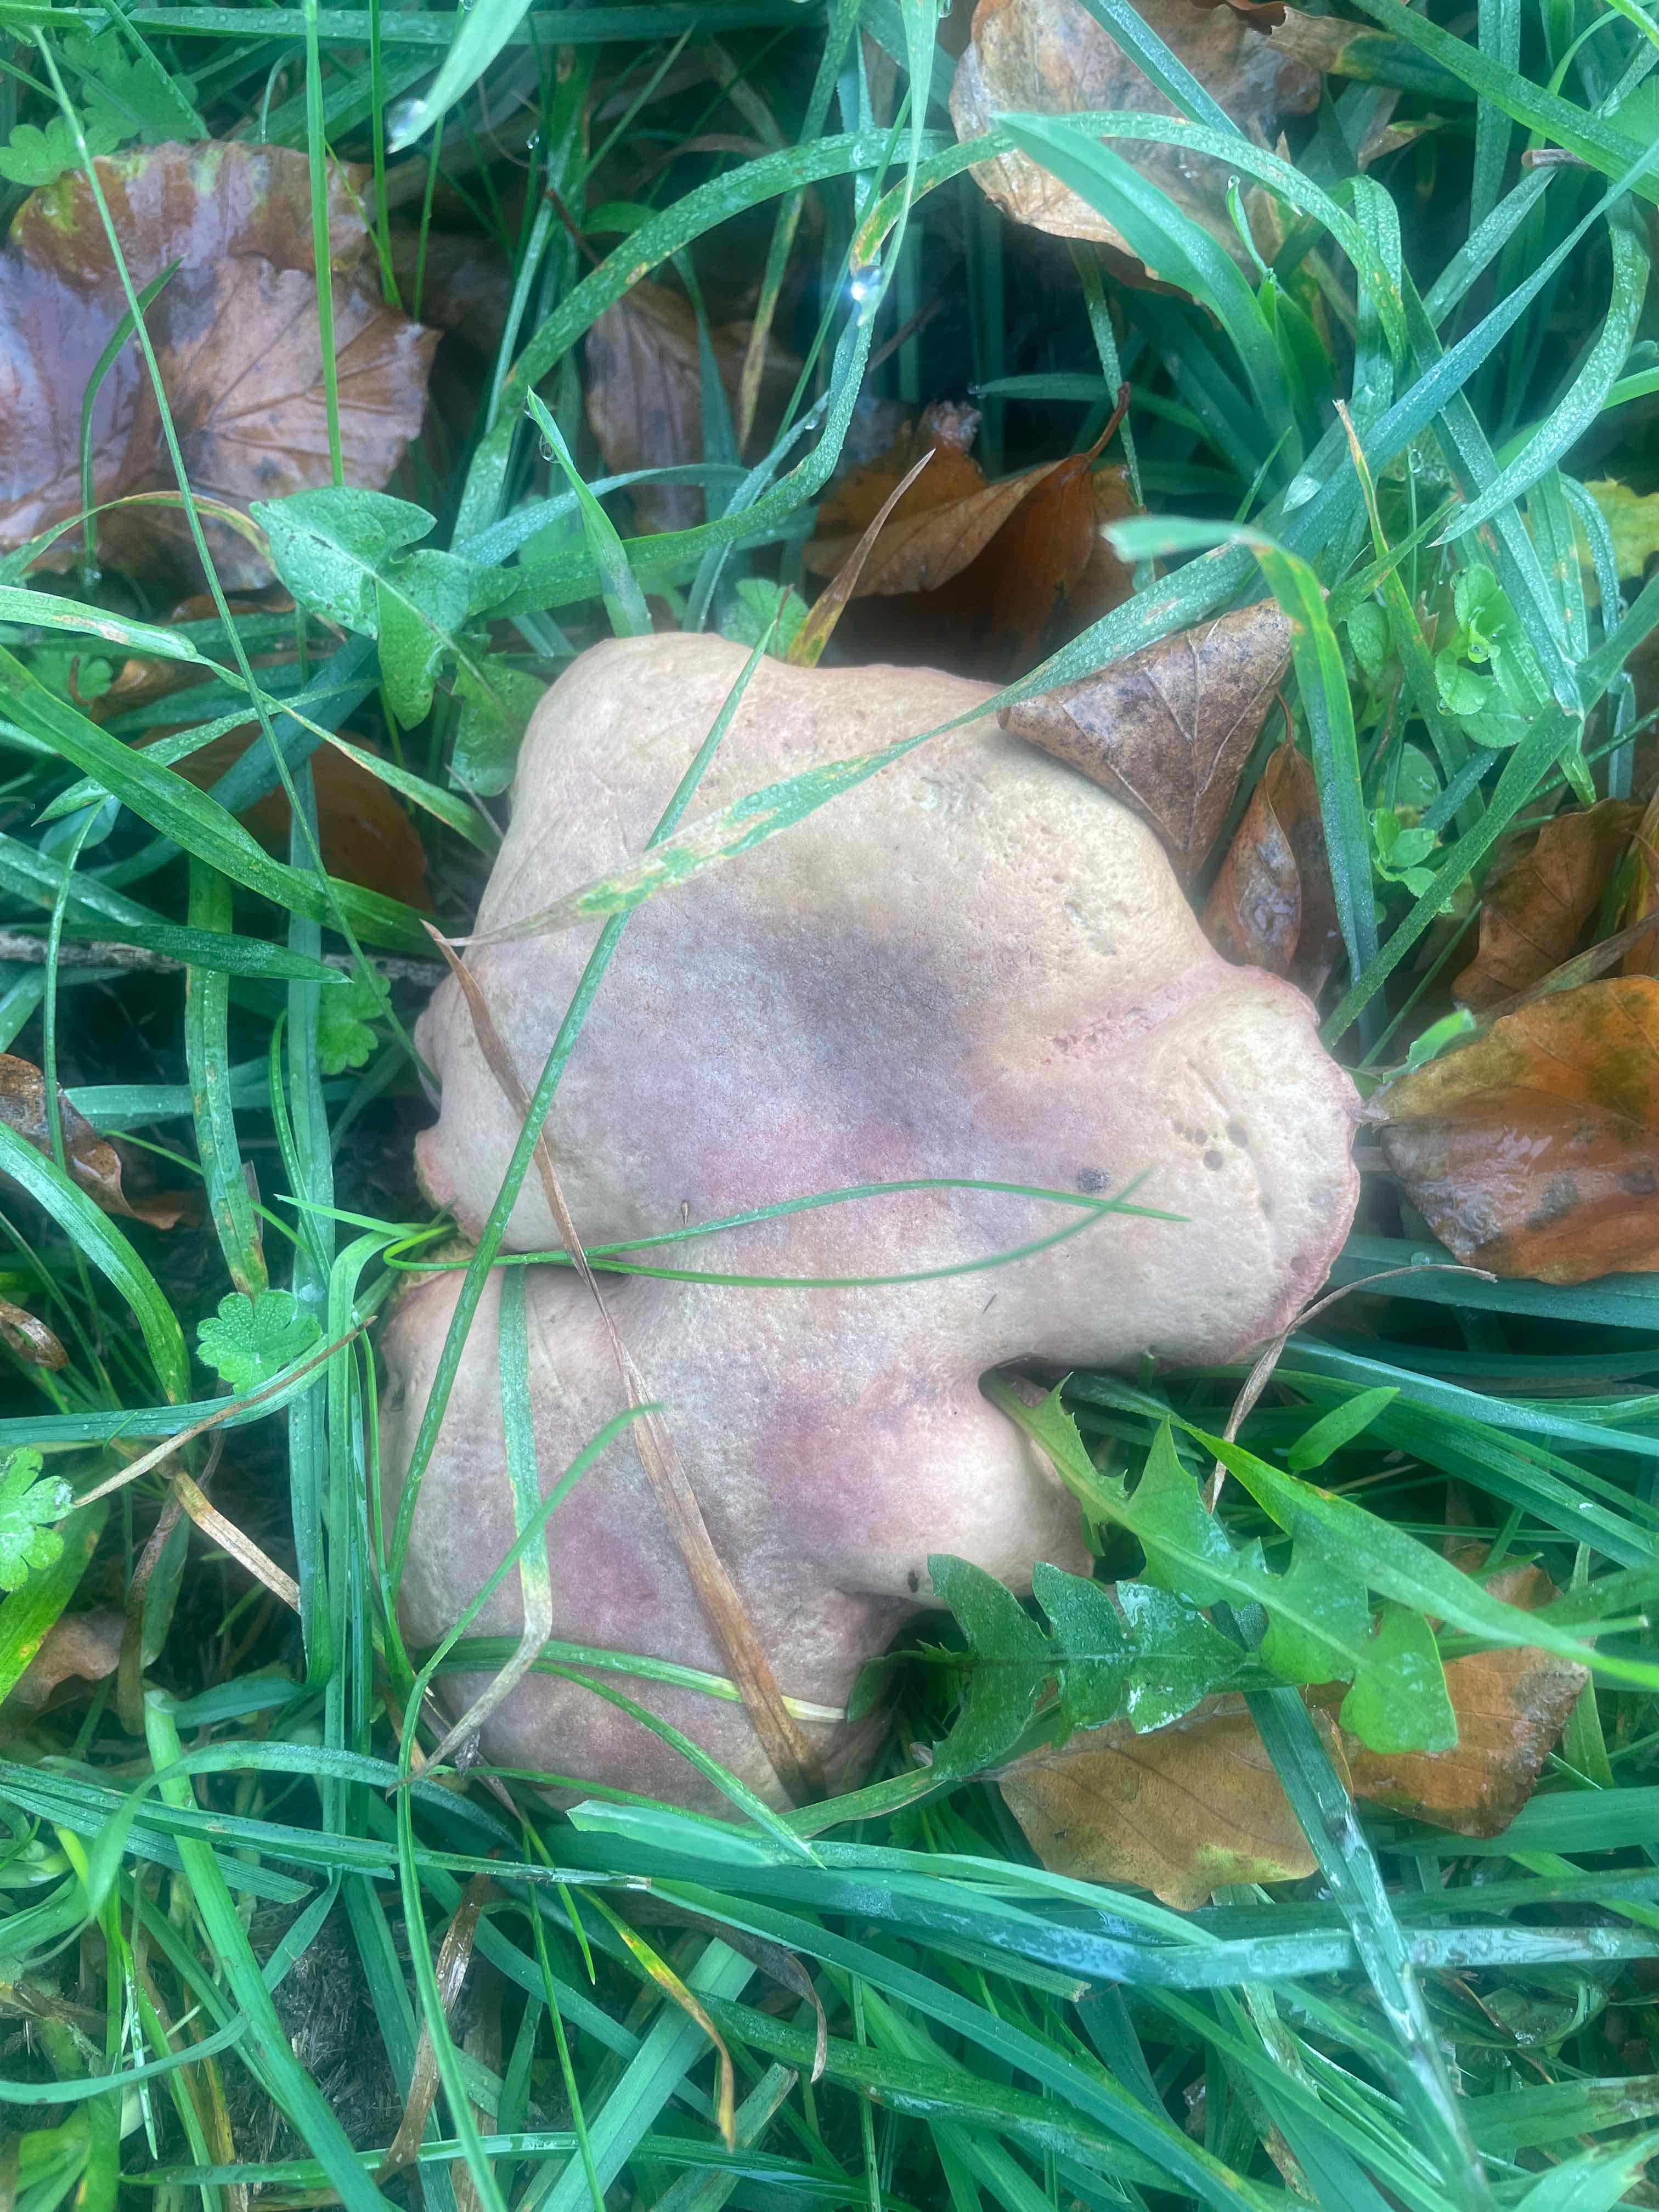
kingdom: Fungi
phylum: Basidiomycota
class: Agaricomycetes
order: Boletales
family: Boletaceae
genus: Hortiboletus
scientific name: Hortiboletus bubalinus
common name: aurora-rørhat
